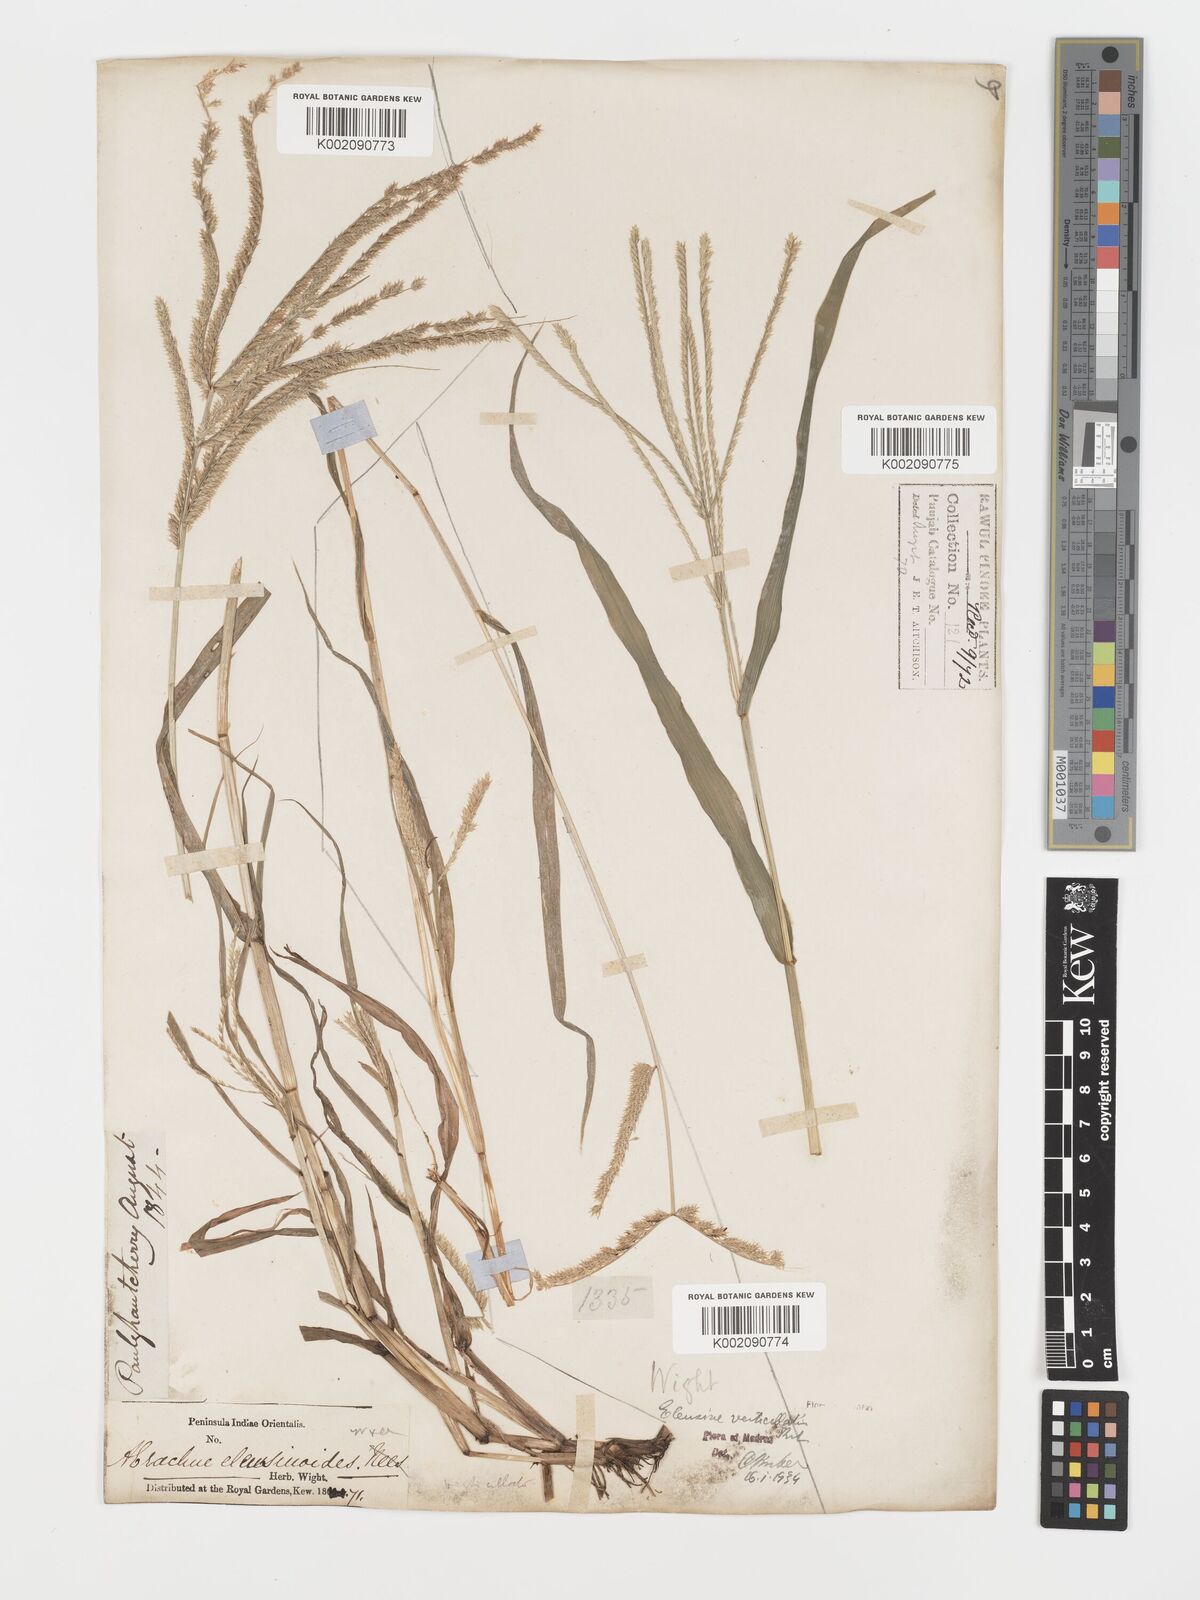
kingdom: Plantae
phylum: Tracheophyta
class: Liliopsida
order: Poales
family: Poaceae
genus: Acrachne
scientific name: Acrachne racemosa
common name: Goosegrass
